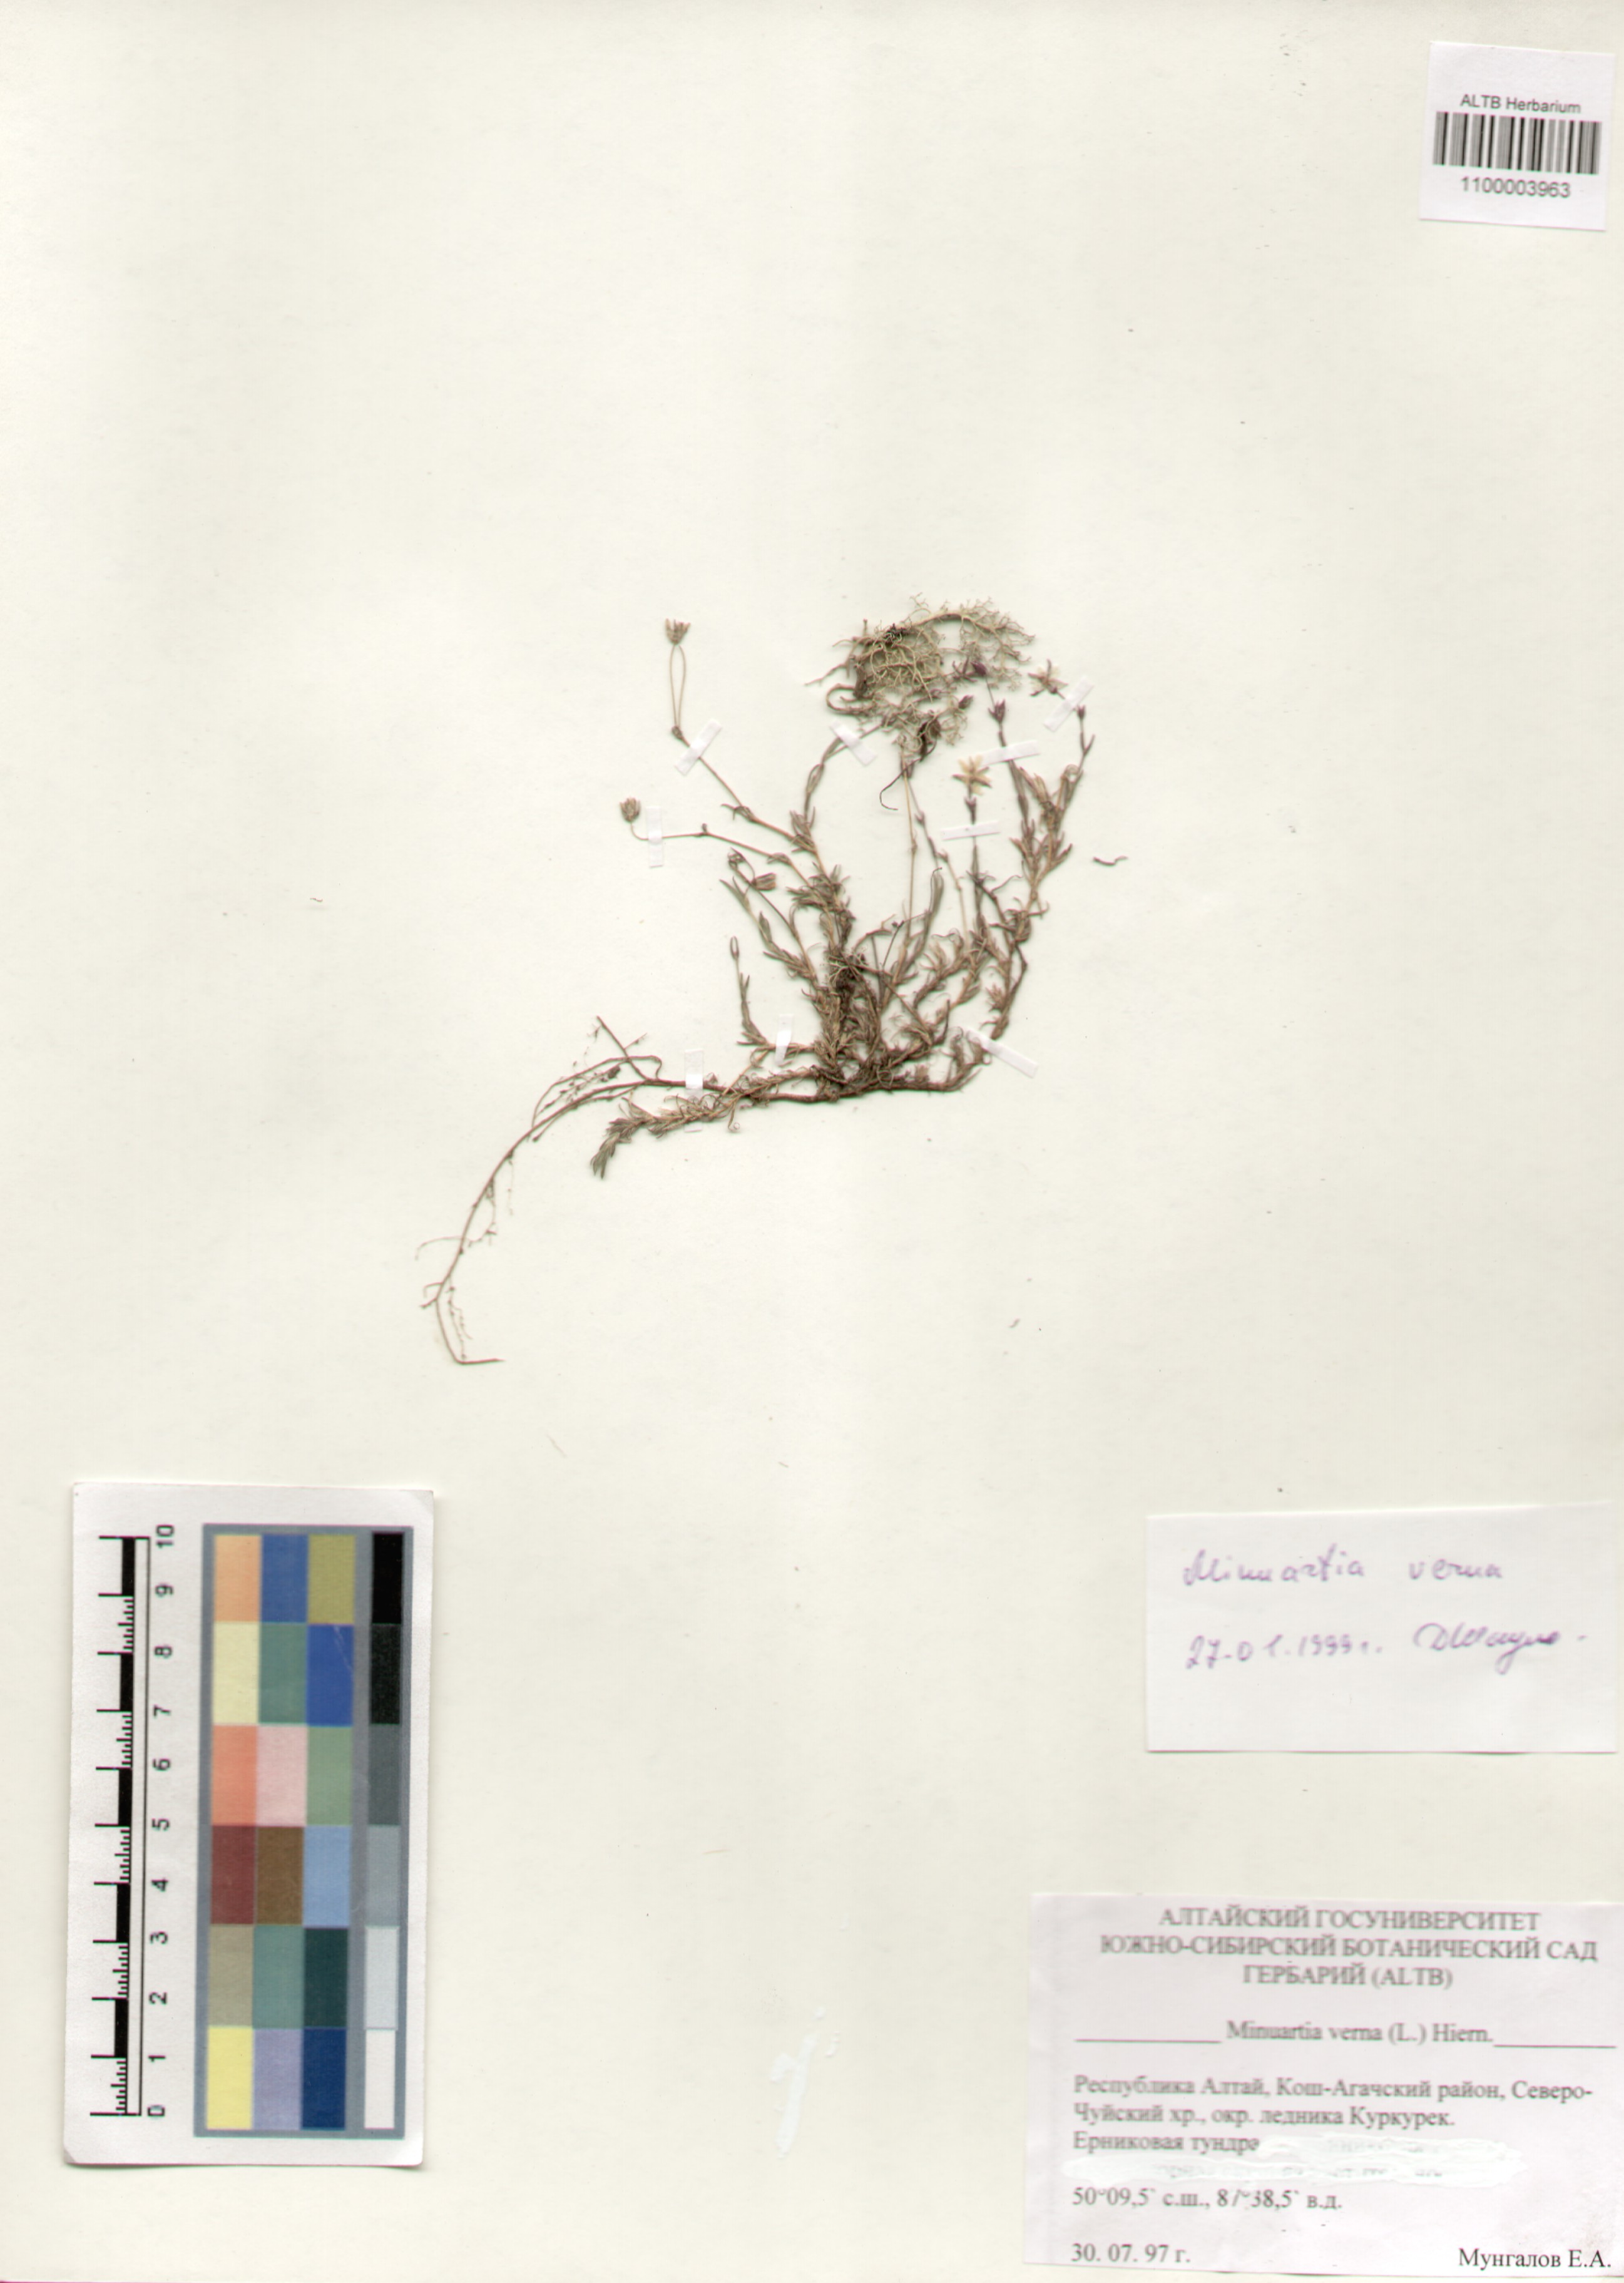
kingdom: Plantae
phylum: Tracheophyta
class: Magnoliopsida
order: Caryophyllales
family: Caryophyllaceae
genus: Sabulina
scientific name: Sabulina verna
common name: Spring sandwort
